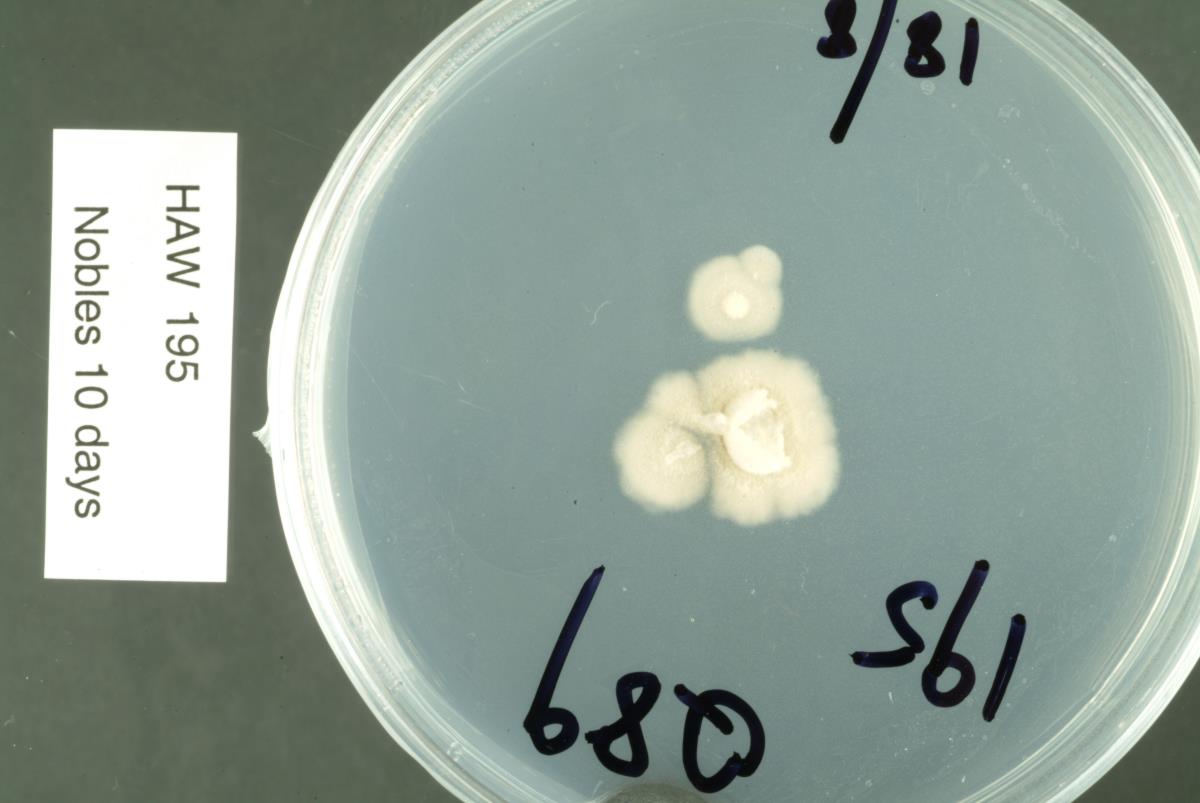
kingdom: Fungi
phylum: Ascomycota
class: Leotiomycetes
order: Rhytismatales
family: Rhytismataceae
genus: Terriera
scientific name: Terriera
